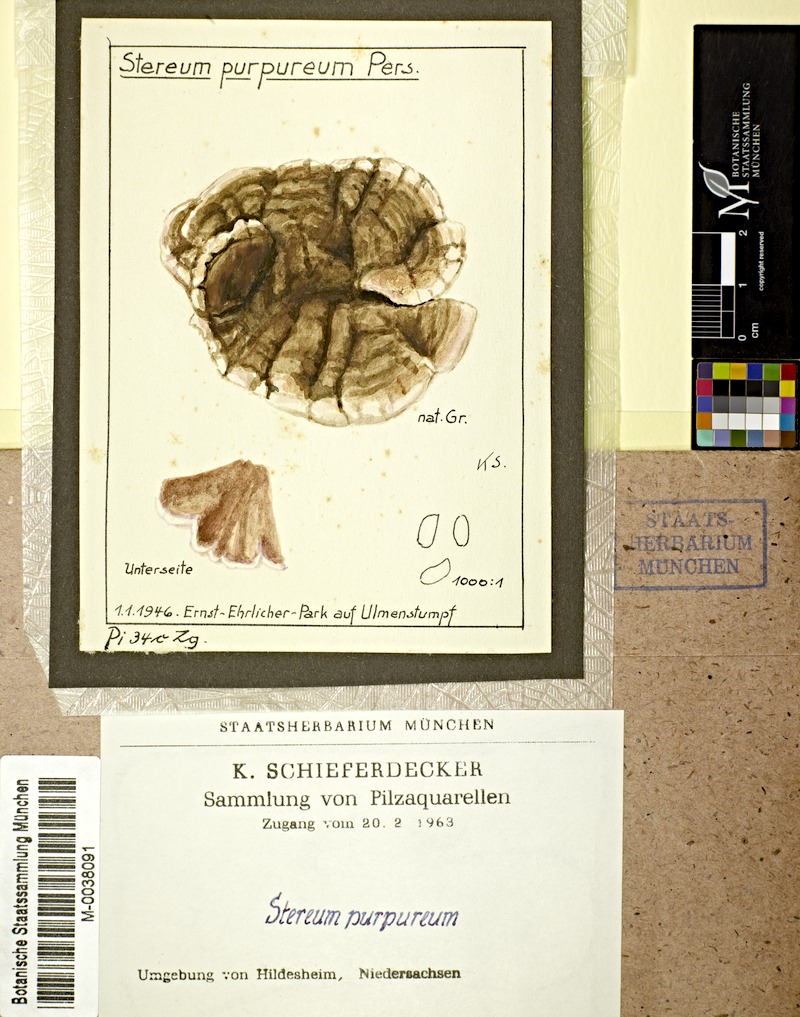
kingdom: Plantae
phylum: Tracheophyta
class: Magnoliopsida
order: Rosales
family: Ulmaceae
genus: Ulmus
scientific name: Ulmus
